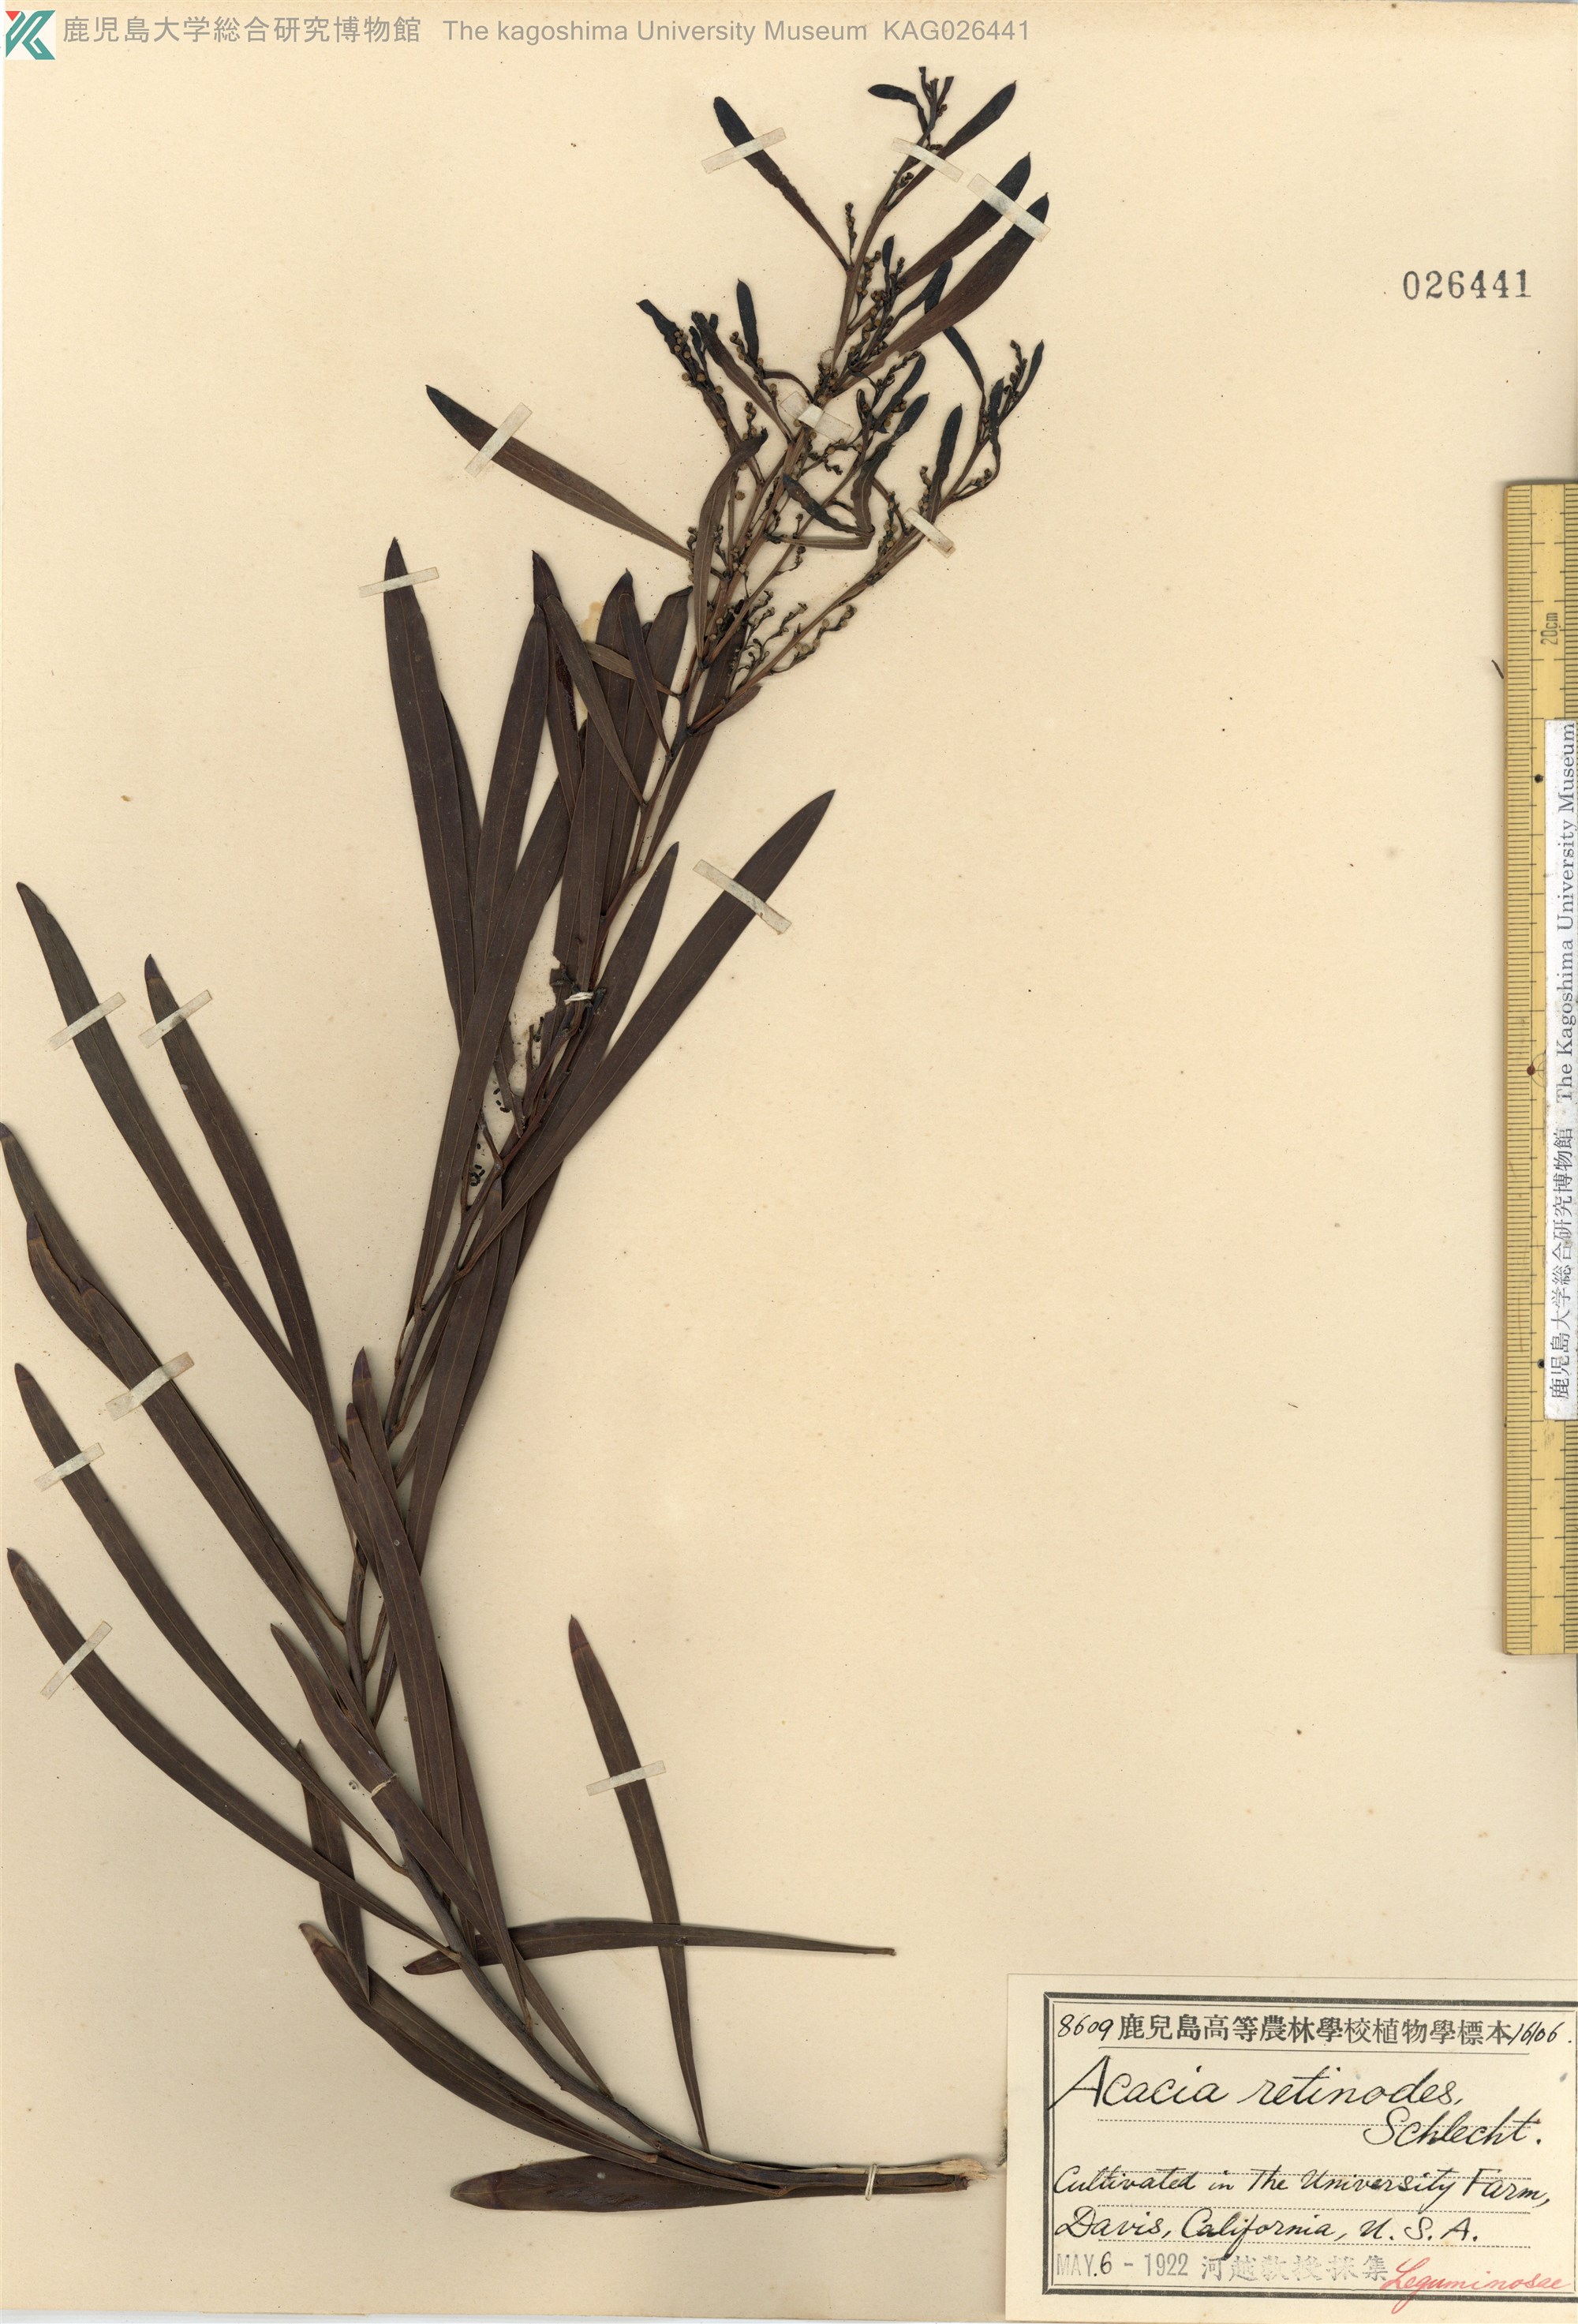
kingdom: Plantae
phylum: Tracheophyta
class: Magnoliopsida
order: Fabales
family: Fabaceae
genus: Acacia
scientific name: Acacia retinodes
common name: Silver wattle
